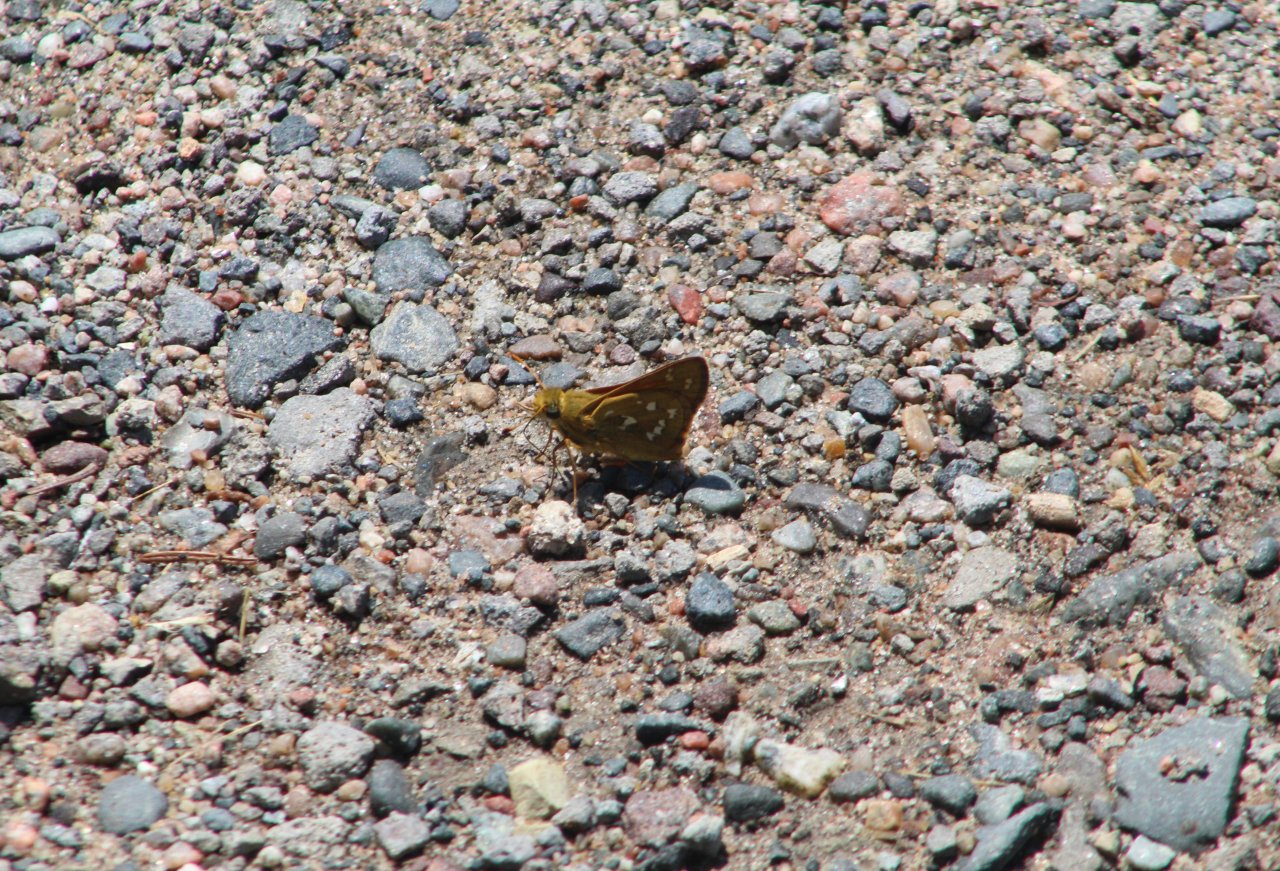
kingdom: Animalia
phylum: Arthropoda
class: Insecta
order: Lepidoptera
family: Hesperiidae
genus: Hesperia
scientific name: Hesperia comma
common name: Common Branded Skipper
